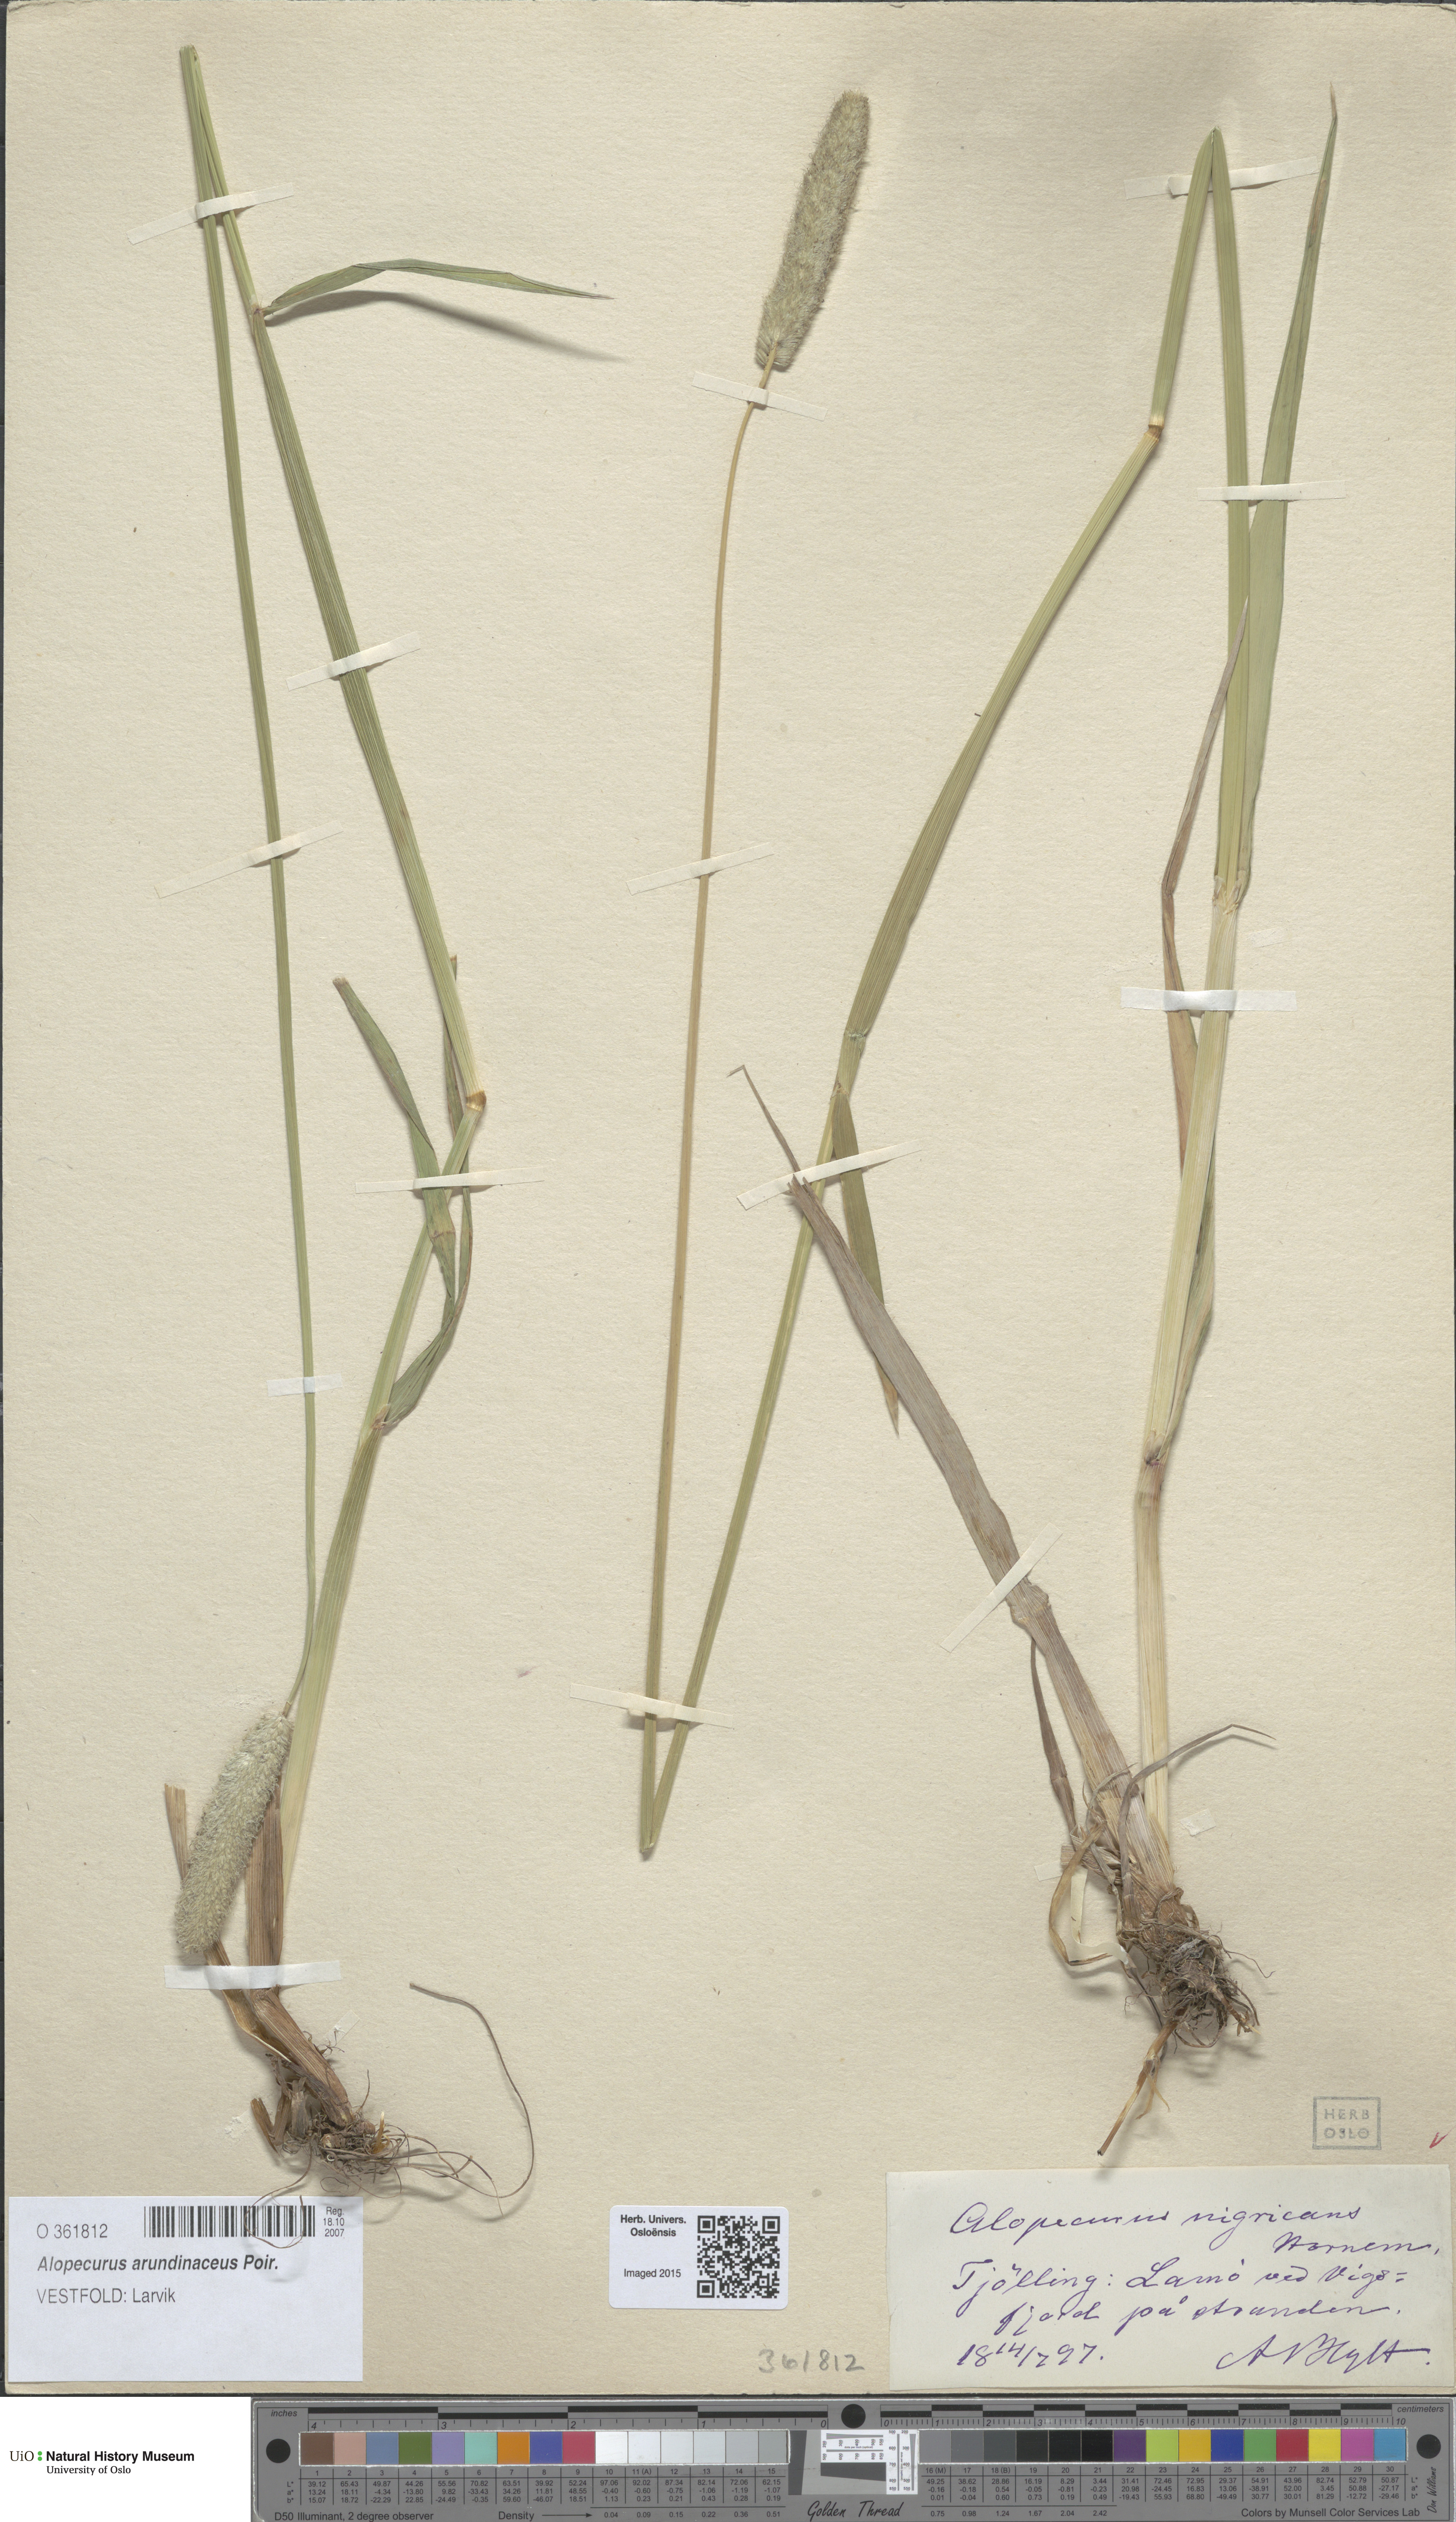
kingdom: Plantae
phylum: Tracheophyta
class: Liliopsida
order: Poales
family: Poaceae
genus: Alopecurus
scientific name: Alopecurus arundinaceus
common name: Creeping meadow foxtail
